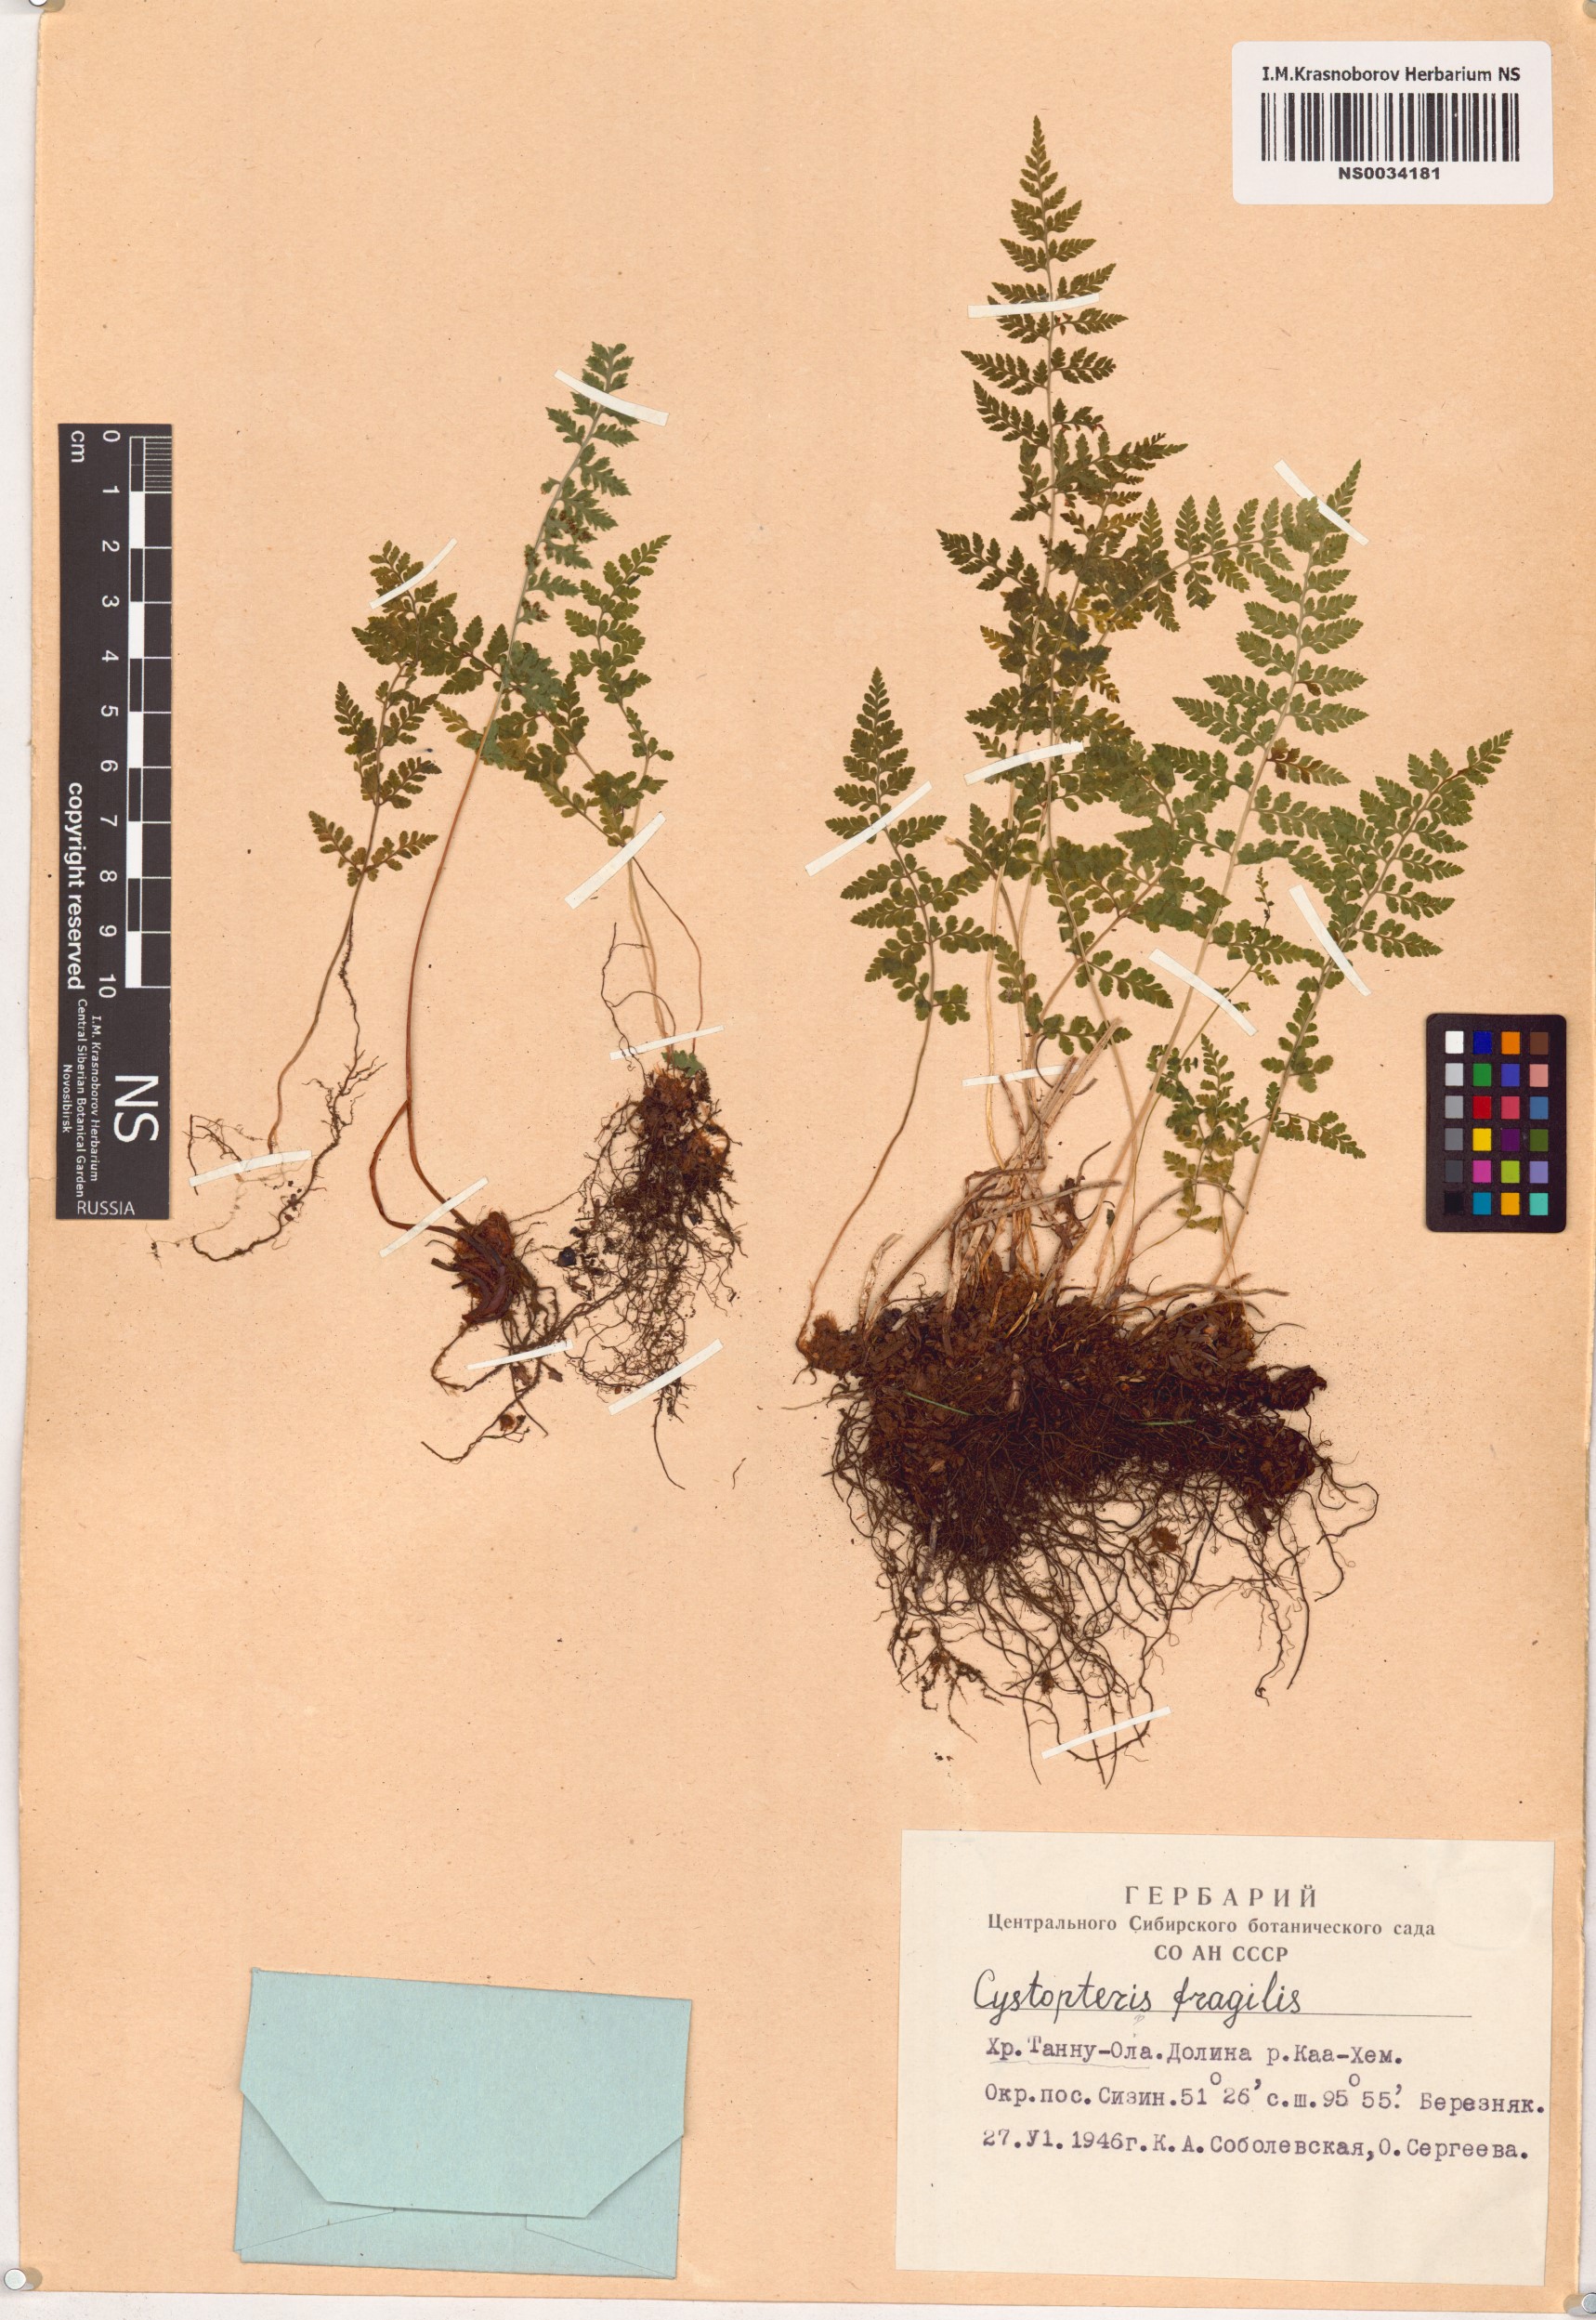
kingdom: Plantae
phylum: Tracheophyta
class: Polypodiopsida
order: Polypodiales
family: Cystopteridaceae
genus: Cystopteris
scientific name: Cystopteris fragilis
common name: Brittle bladder fern
